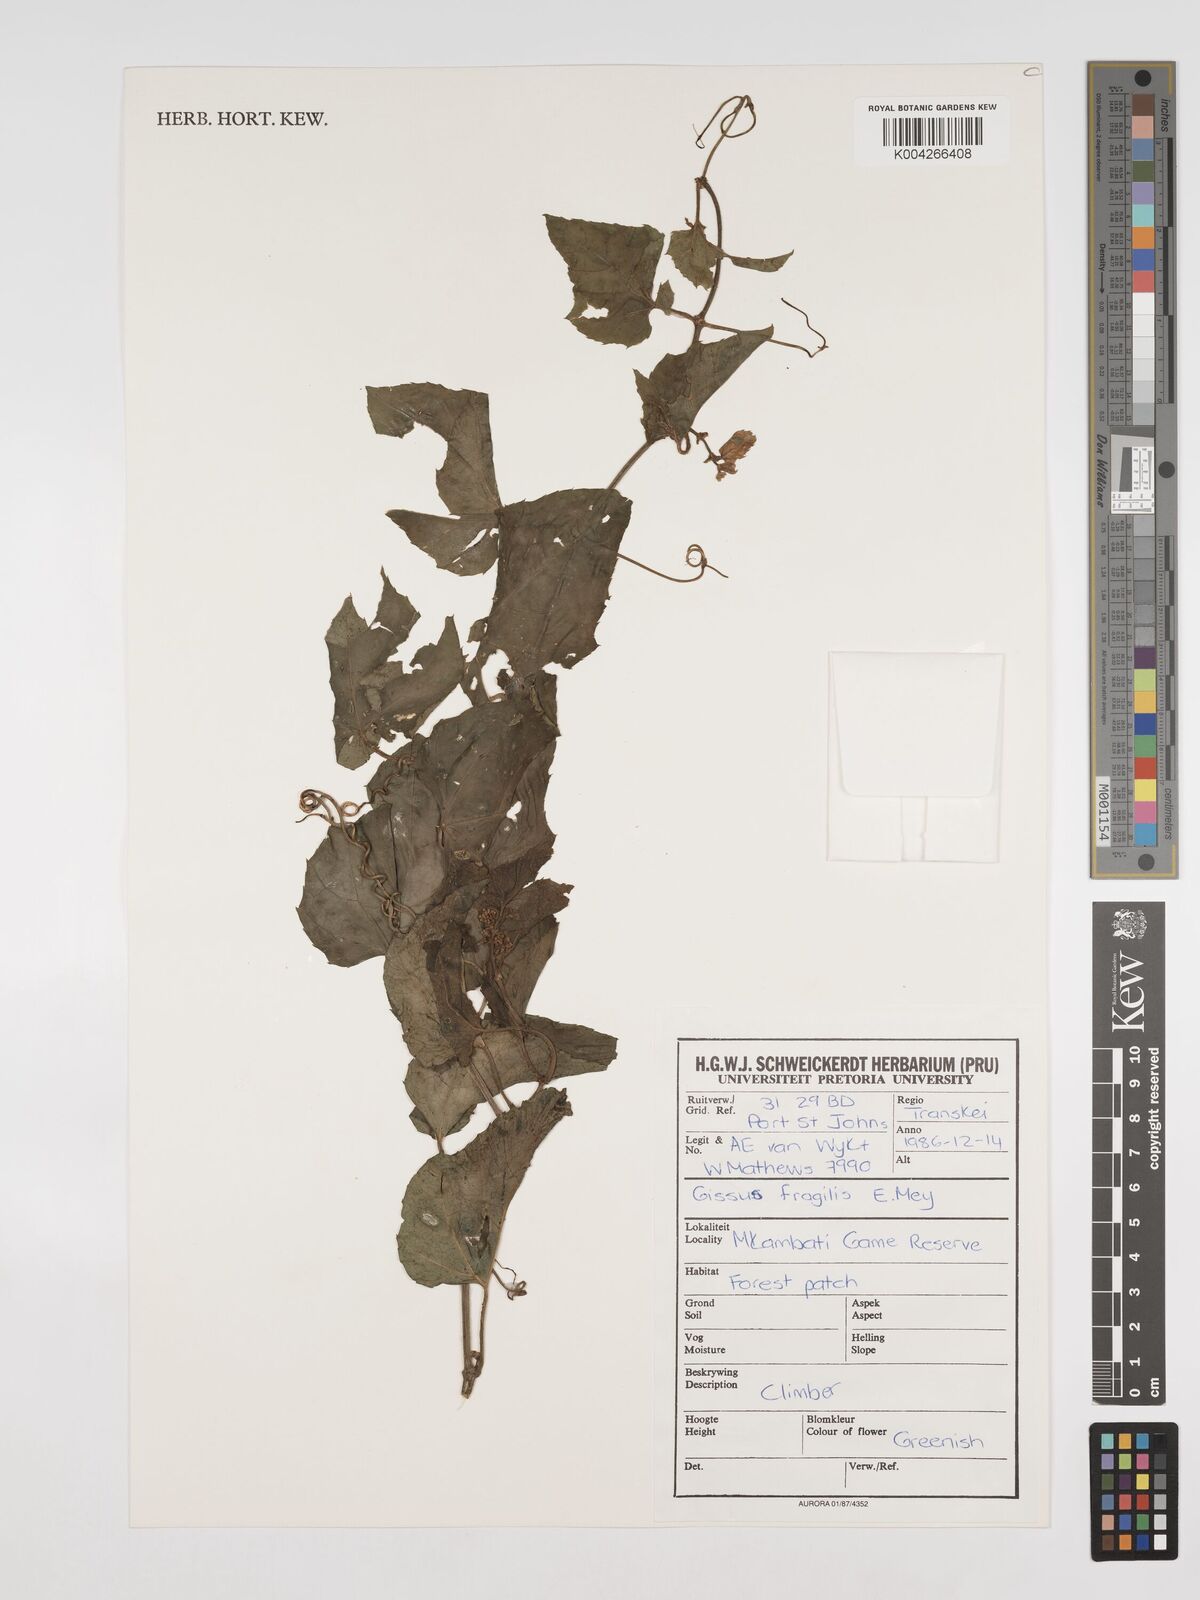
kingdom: Plantae
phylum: Tracheophyta
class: Magnoliopsida
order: Vitales
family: Vitaceae
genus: Cissus
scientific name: Cissus fragilis
